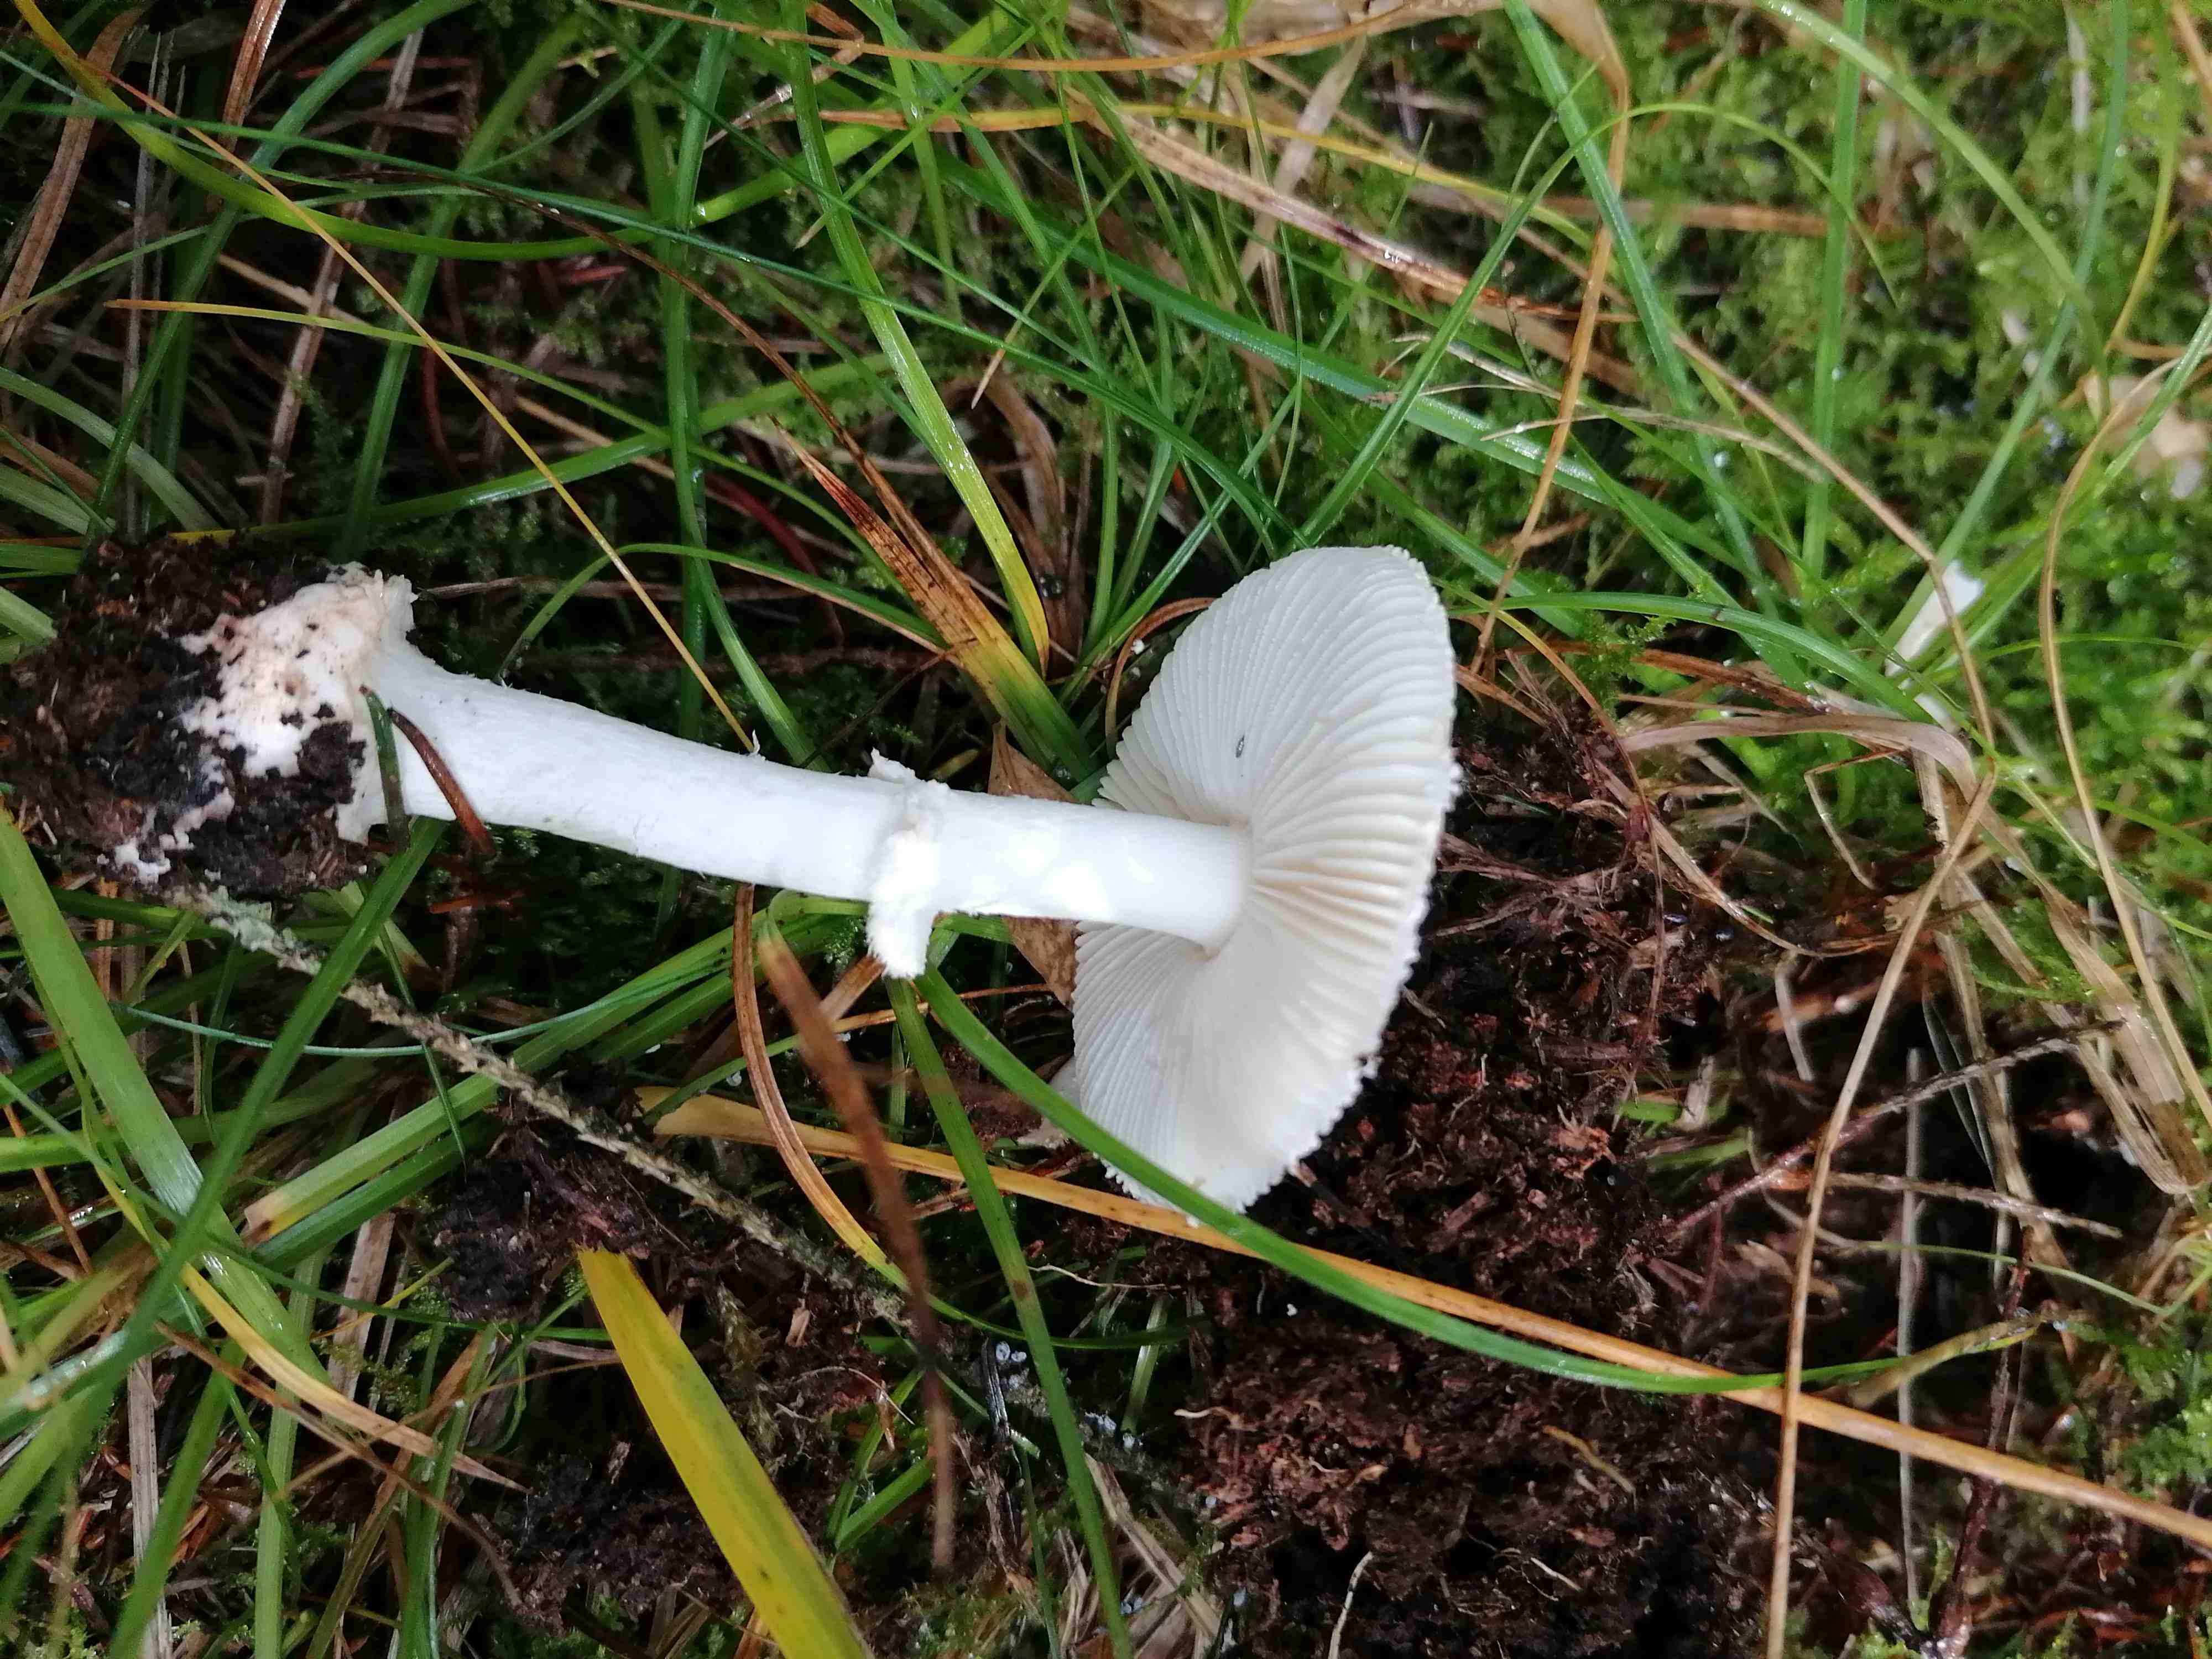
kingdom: Fungi
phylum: Basidiomycota
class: Agaricomycetes
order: Agaricales
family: Amanitaceae
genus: Amanita
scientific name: Amanita citrina
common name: kugleknoldet fluesvamp
